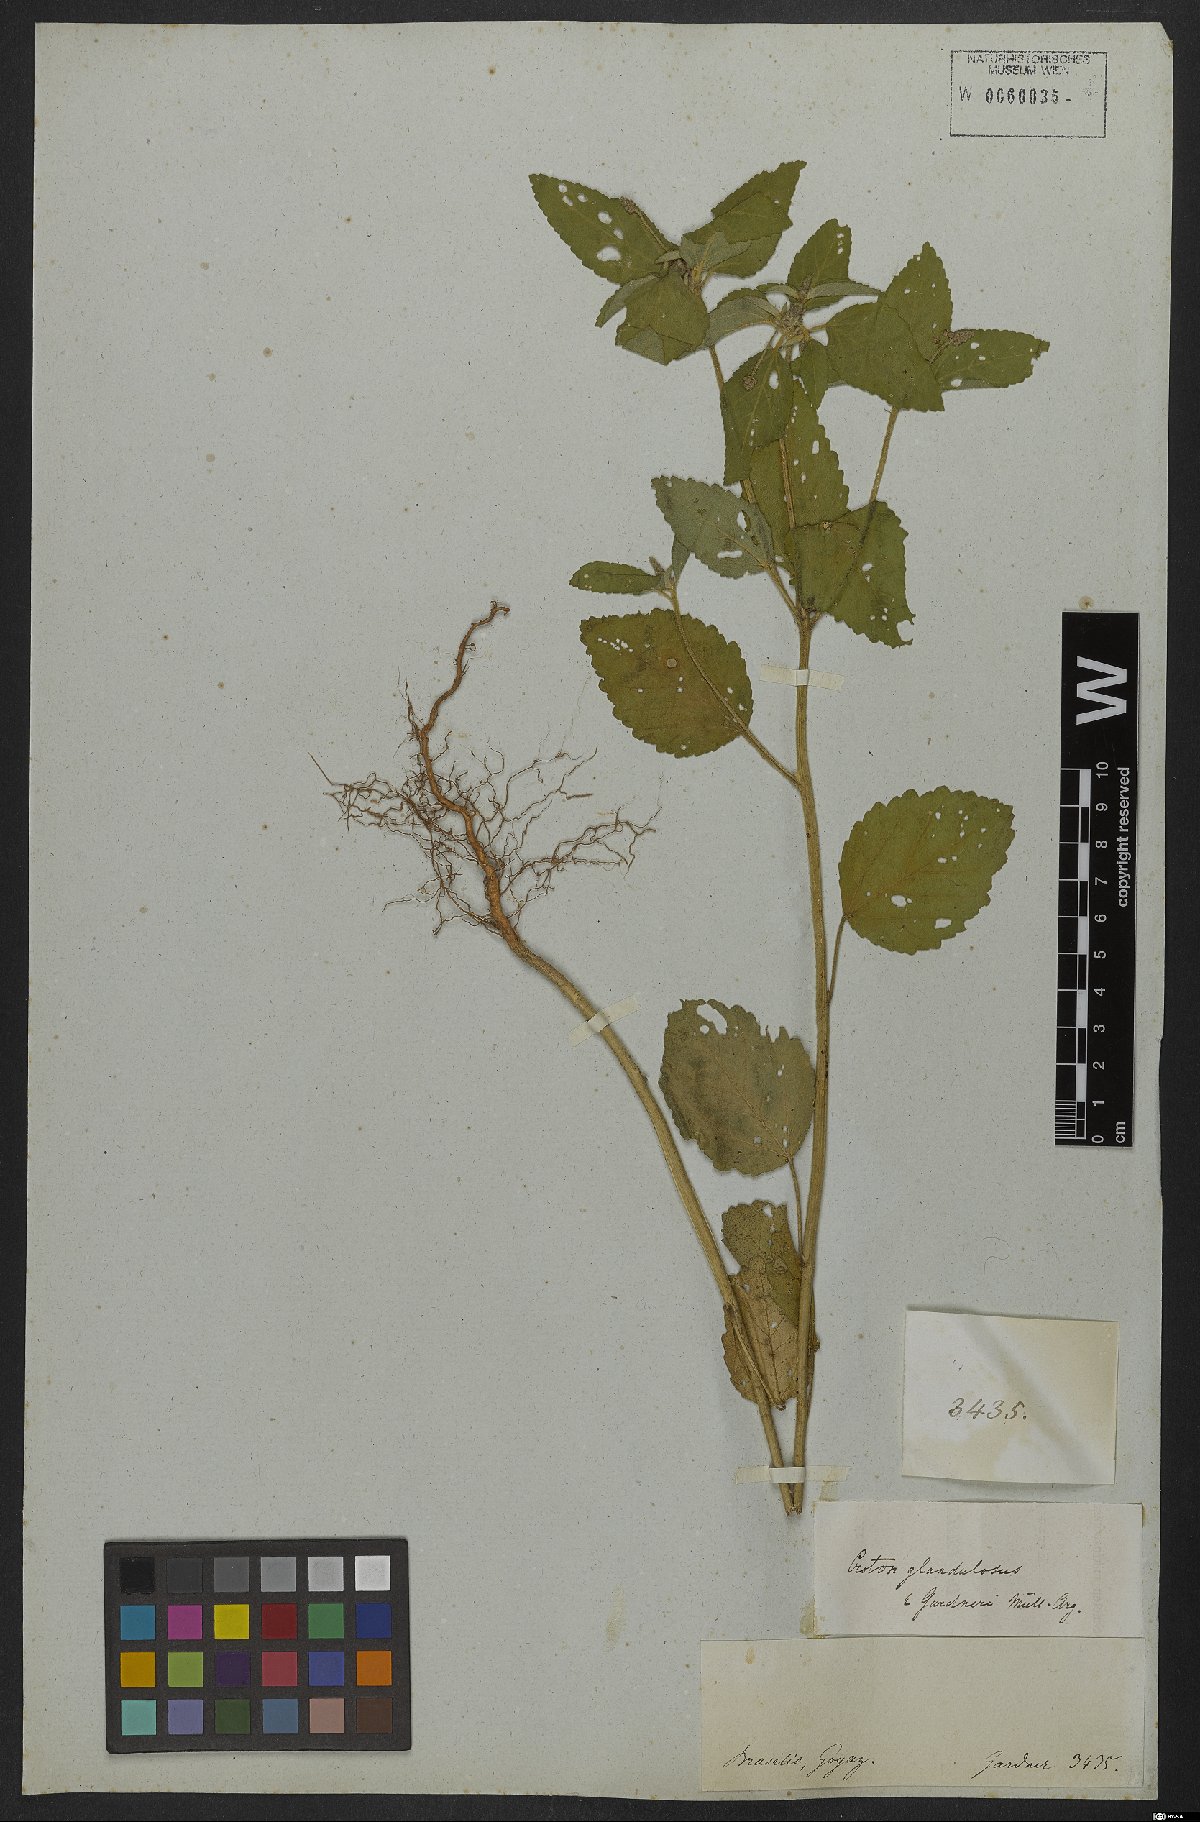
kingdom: Plantae
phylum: Tracheophyta
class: Magnoliopsida
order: Malpighiales
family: Euphorbiaceae
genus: Croton
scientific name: Croton glandulosus
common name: Tropic croton
